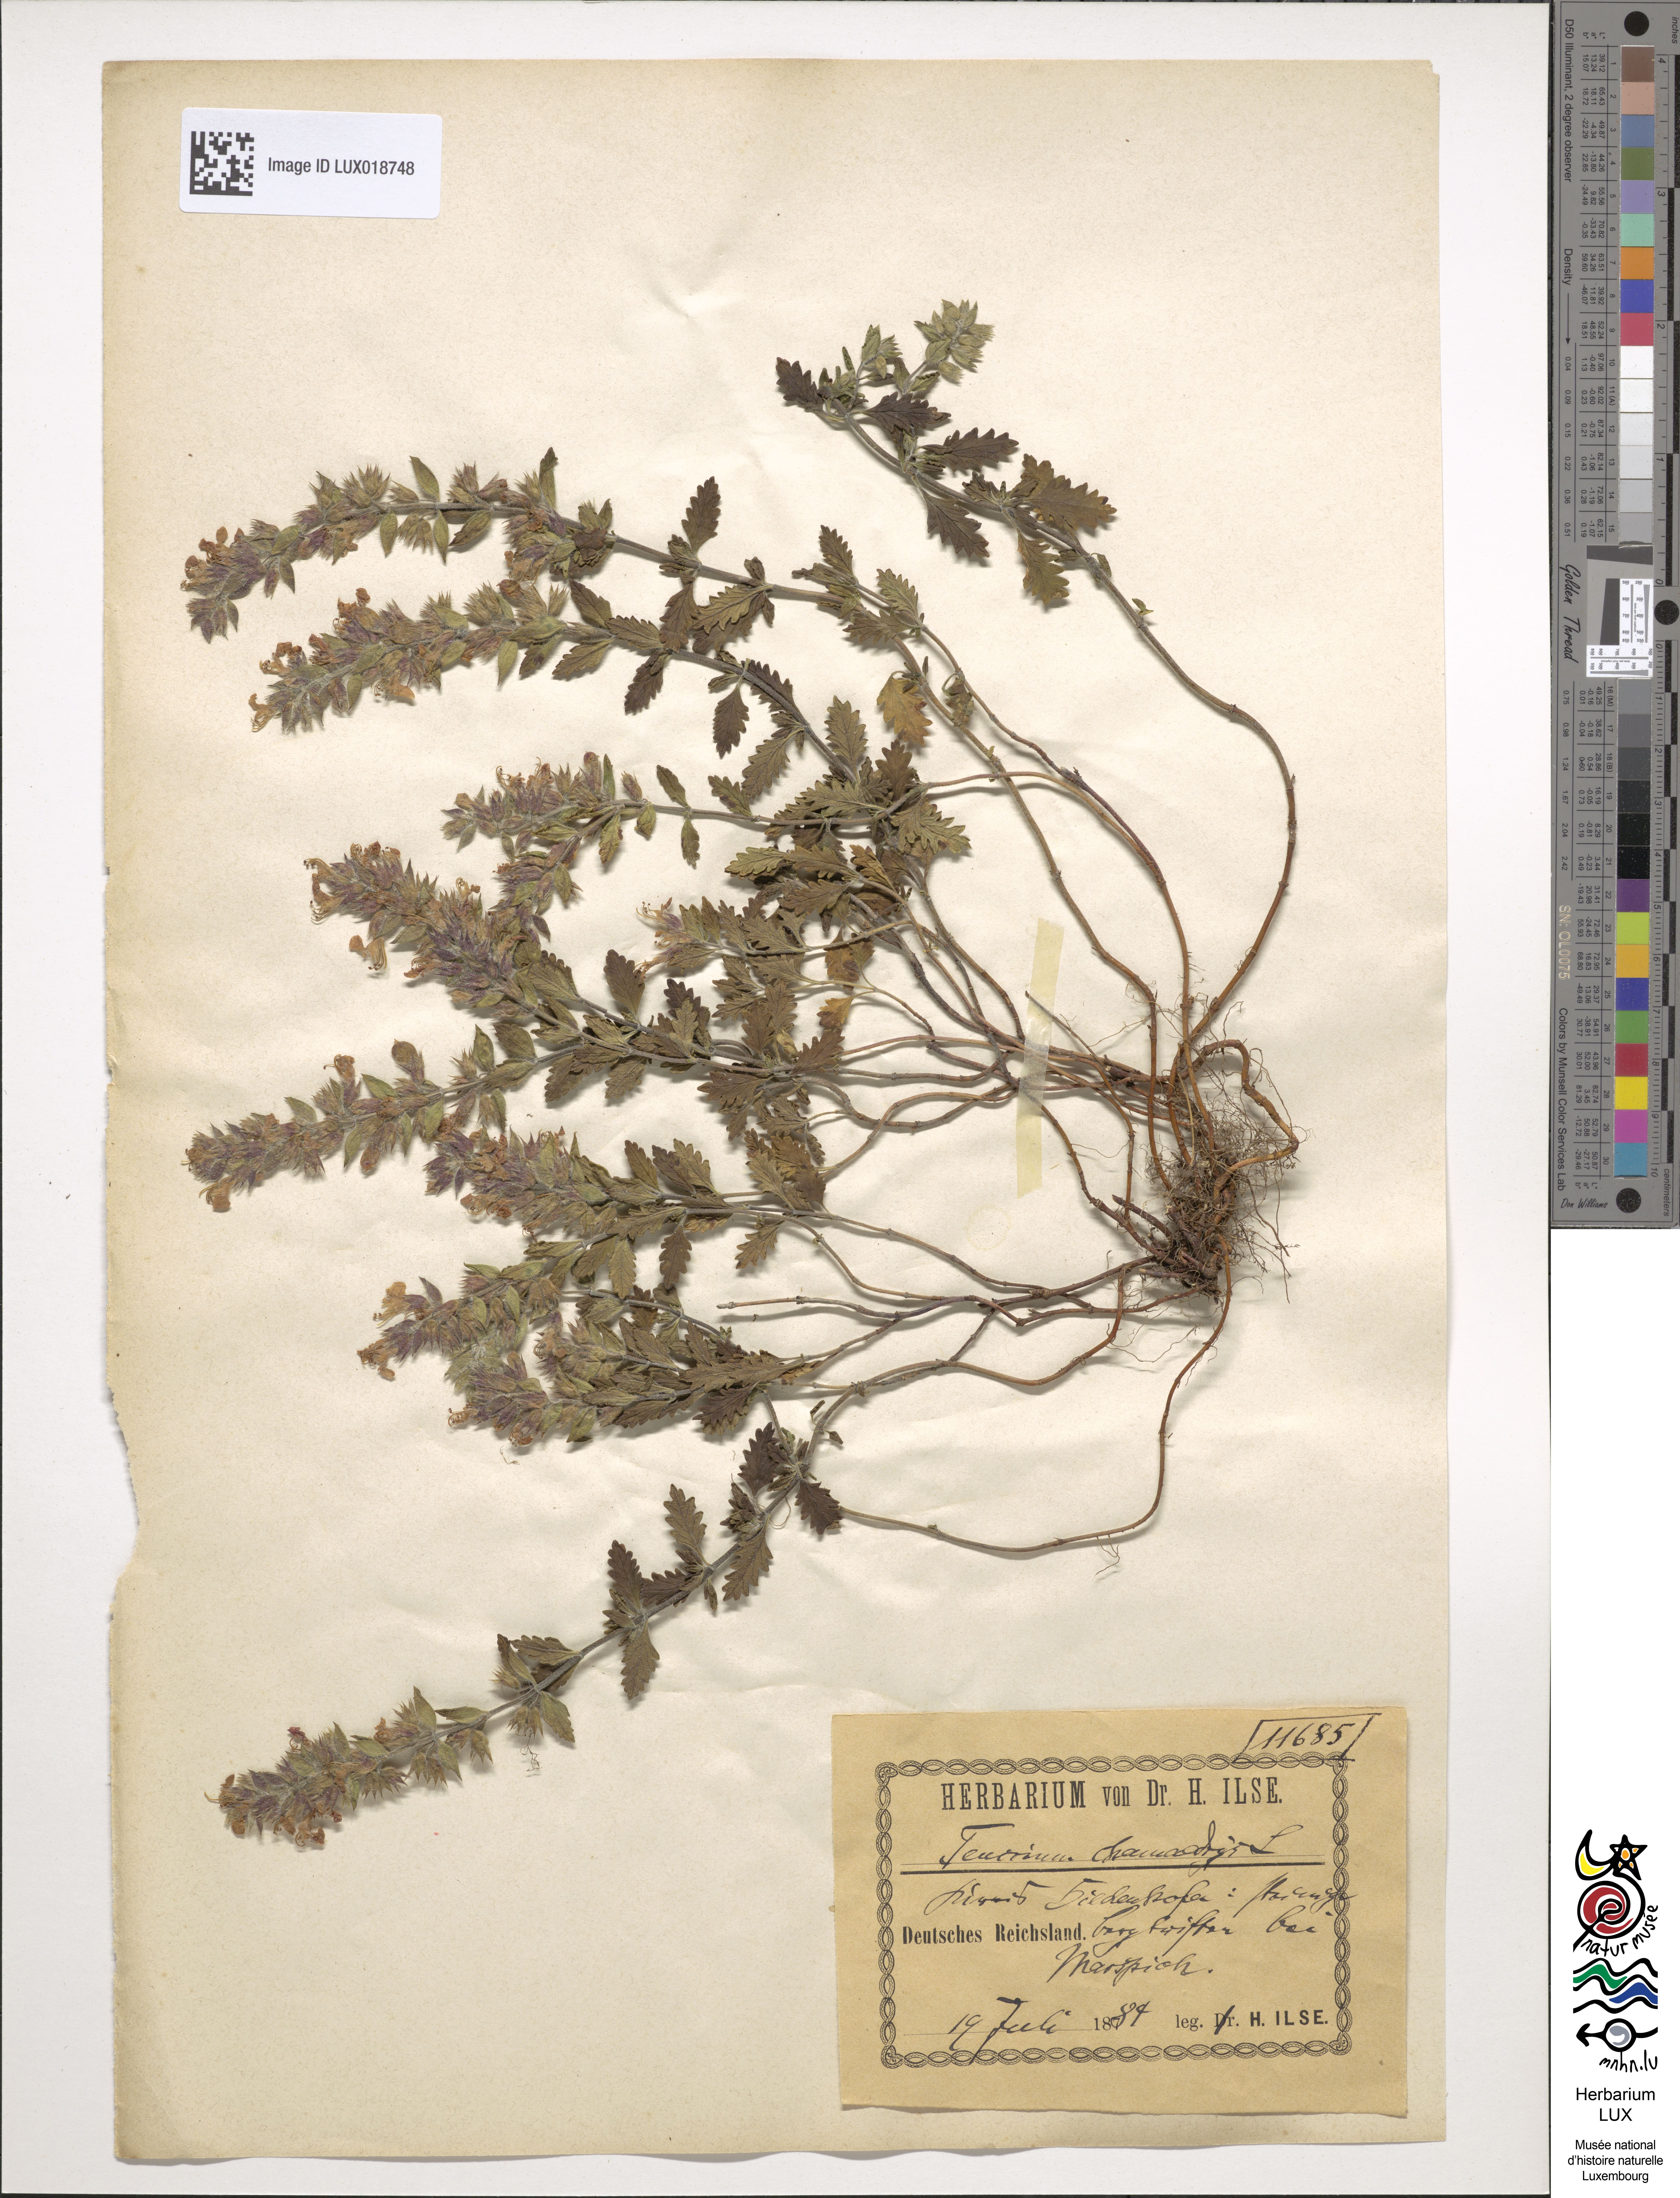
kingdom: Plantae
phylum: Tracheophyta
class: Magnoliopsida
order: Lamiales
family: Lamiaceae
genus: Teucrium
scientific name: Teucrium chamaedrys
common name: Wall germander
